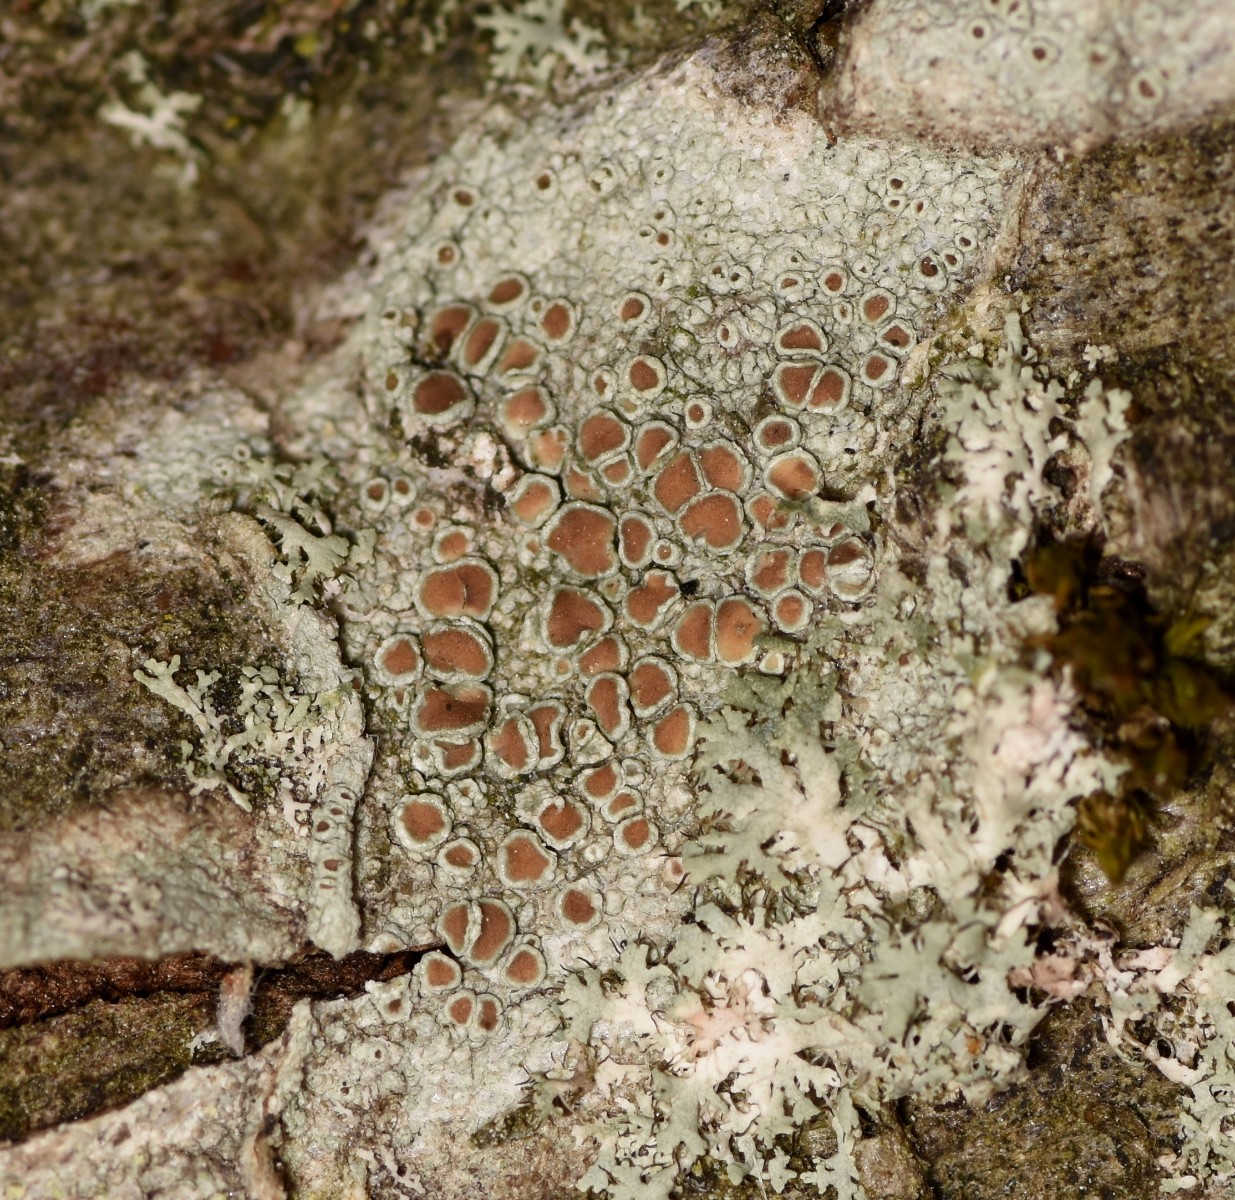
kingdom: Fungi
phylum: Ascomycota
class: Lecanoromycetes
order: Lecanorales
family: Lecanoraceae
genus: Lecanora
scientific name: Lecanora chlarotera
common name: brun kantskivelav
